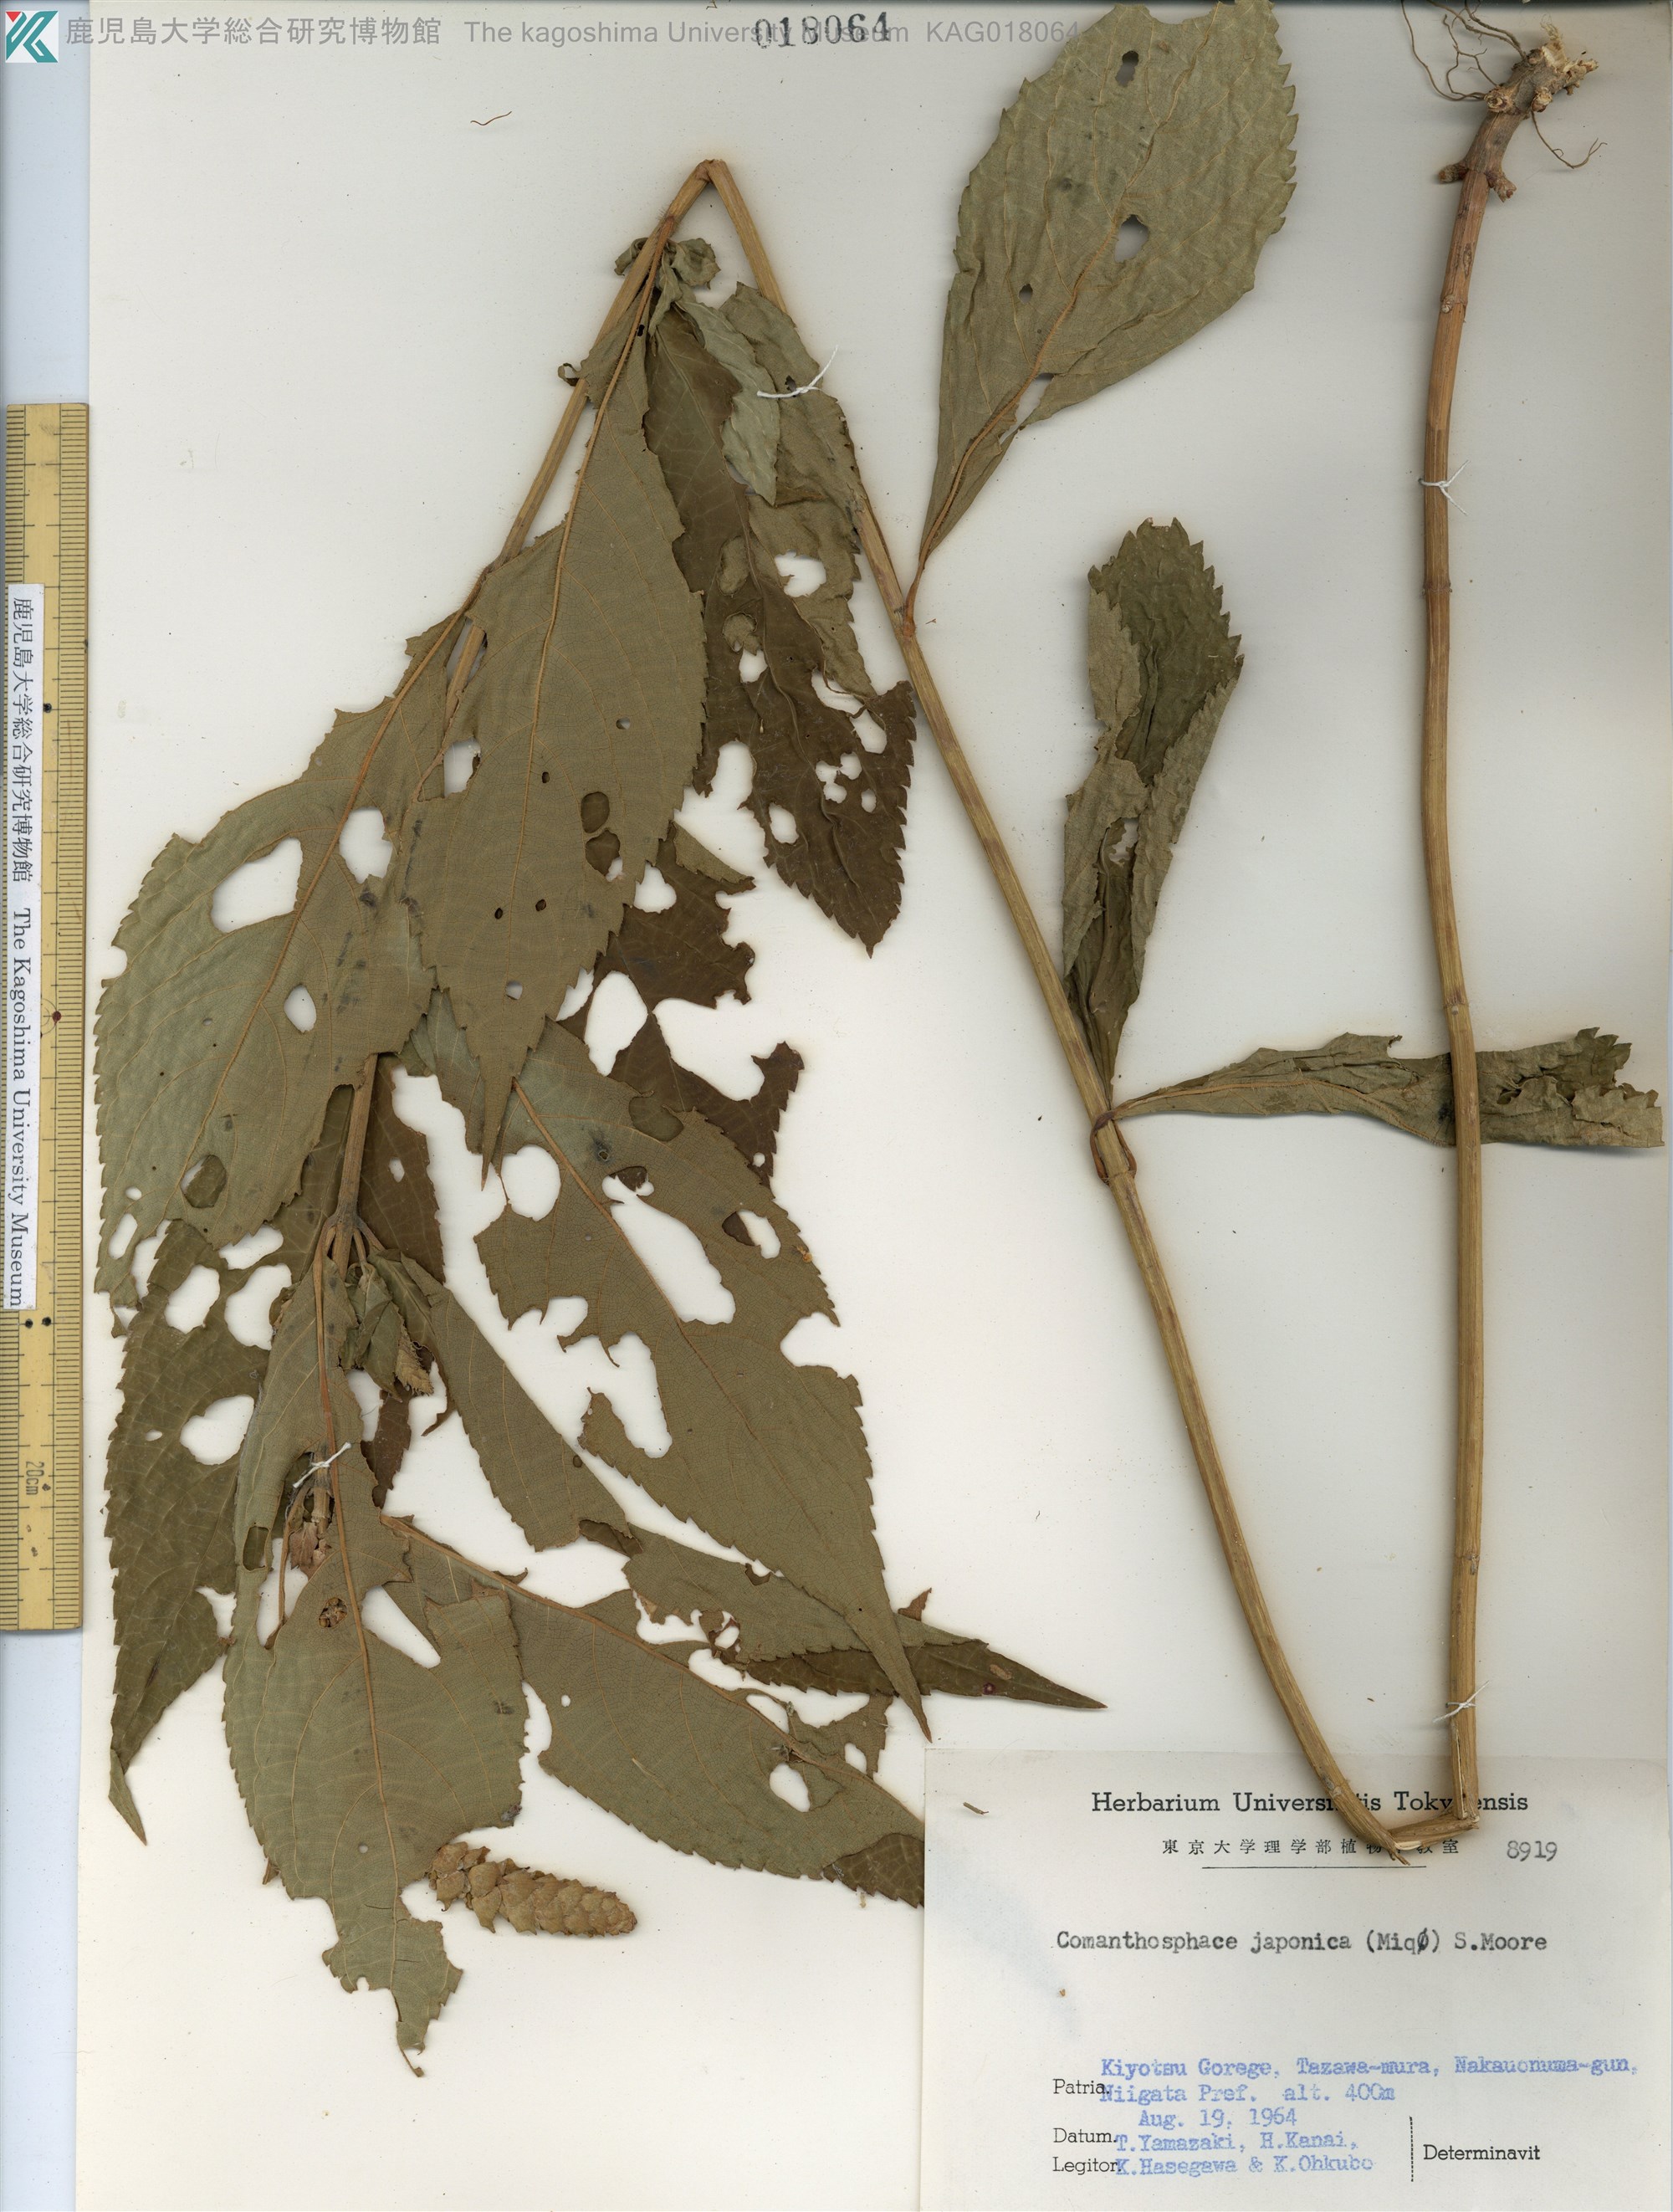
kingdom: Plantae
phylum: Tracheophyta
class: Magnoliopsida
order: Lamiales
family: Lamiaceae
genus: Comanthosphace
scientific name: Comanthosphace japonica
